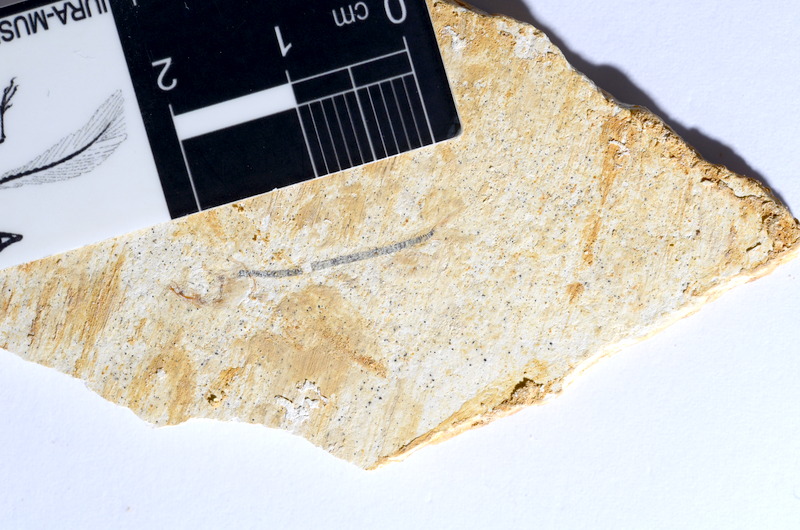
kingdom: Animalia
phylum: Chordata
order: Salmoniformes
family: Orthogonikleithridae
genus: Orthogonikleithrus
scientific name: Orthogonikleithrus hoelli
